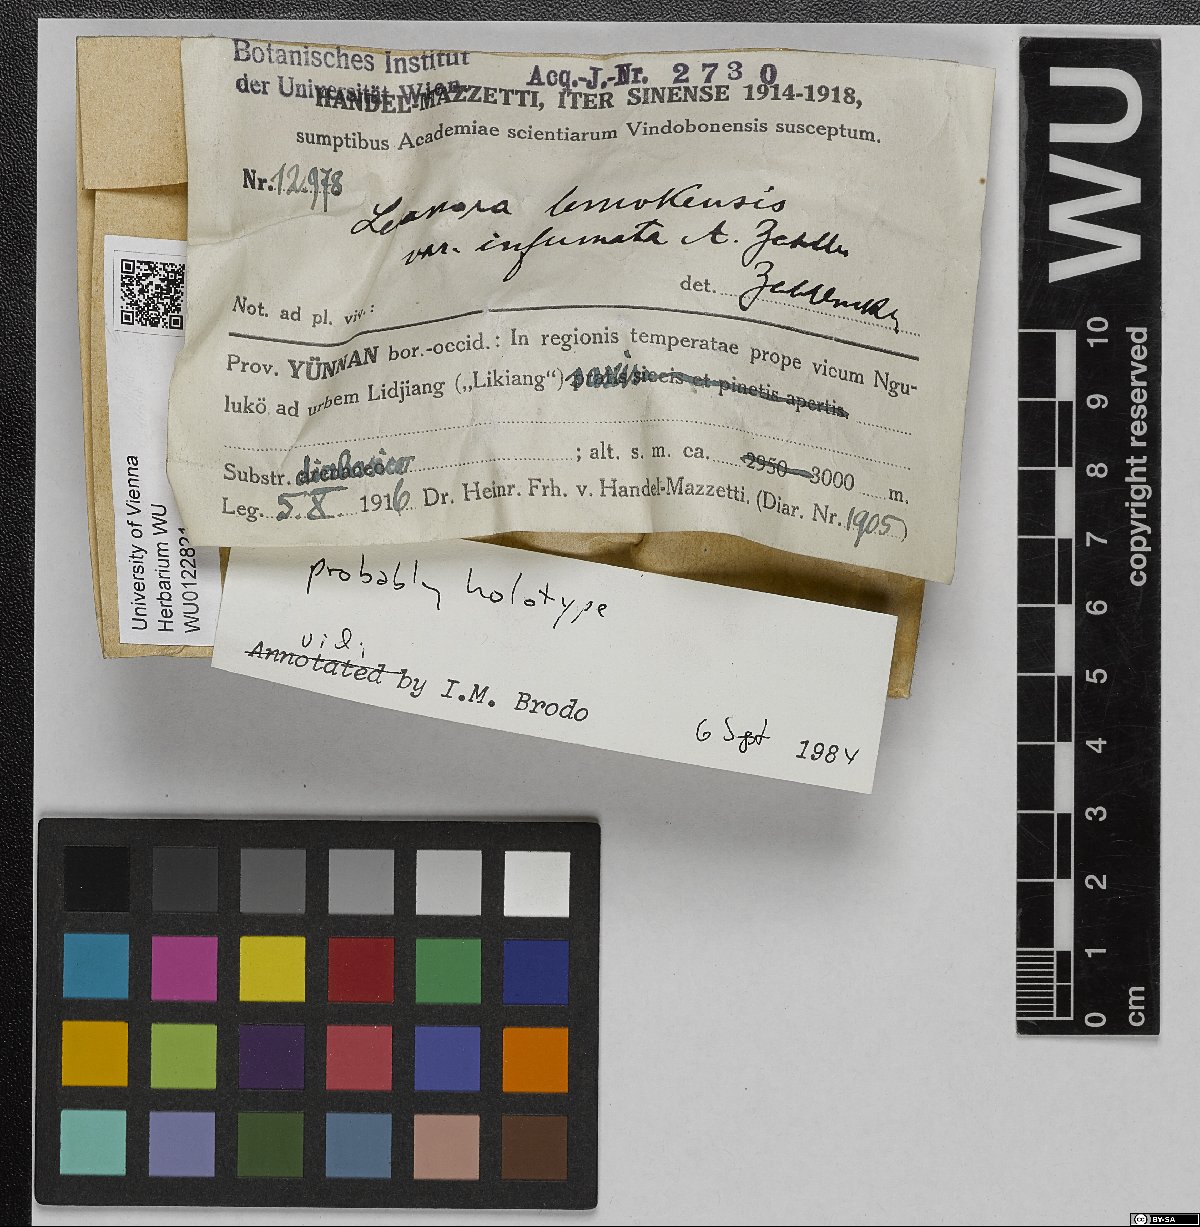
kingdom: Fungi
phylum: Ascomycota
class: Lecanoromycetes
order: Lecanorales
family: Lecanoraceae
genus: Lecanora
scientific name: Lecanora
